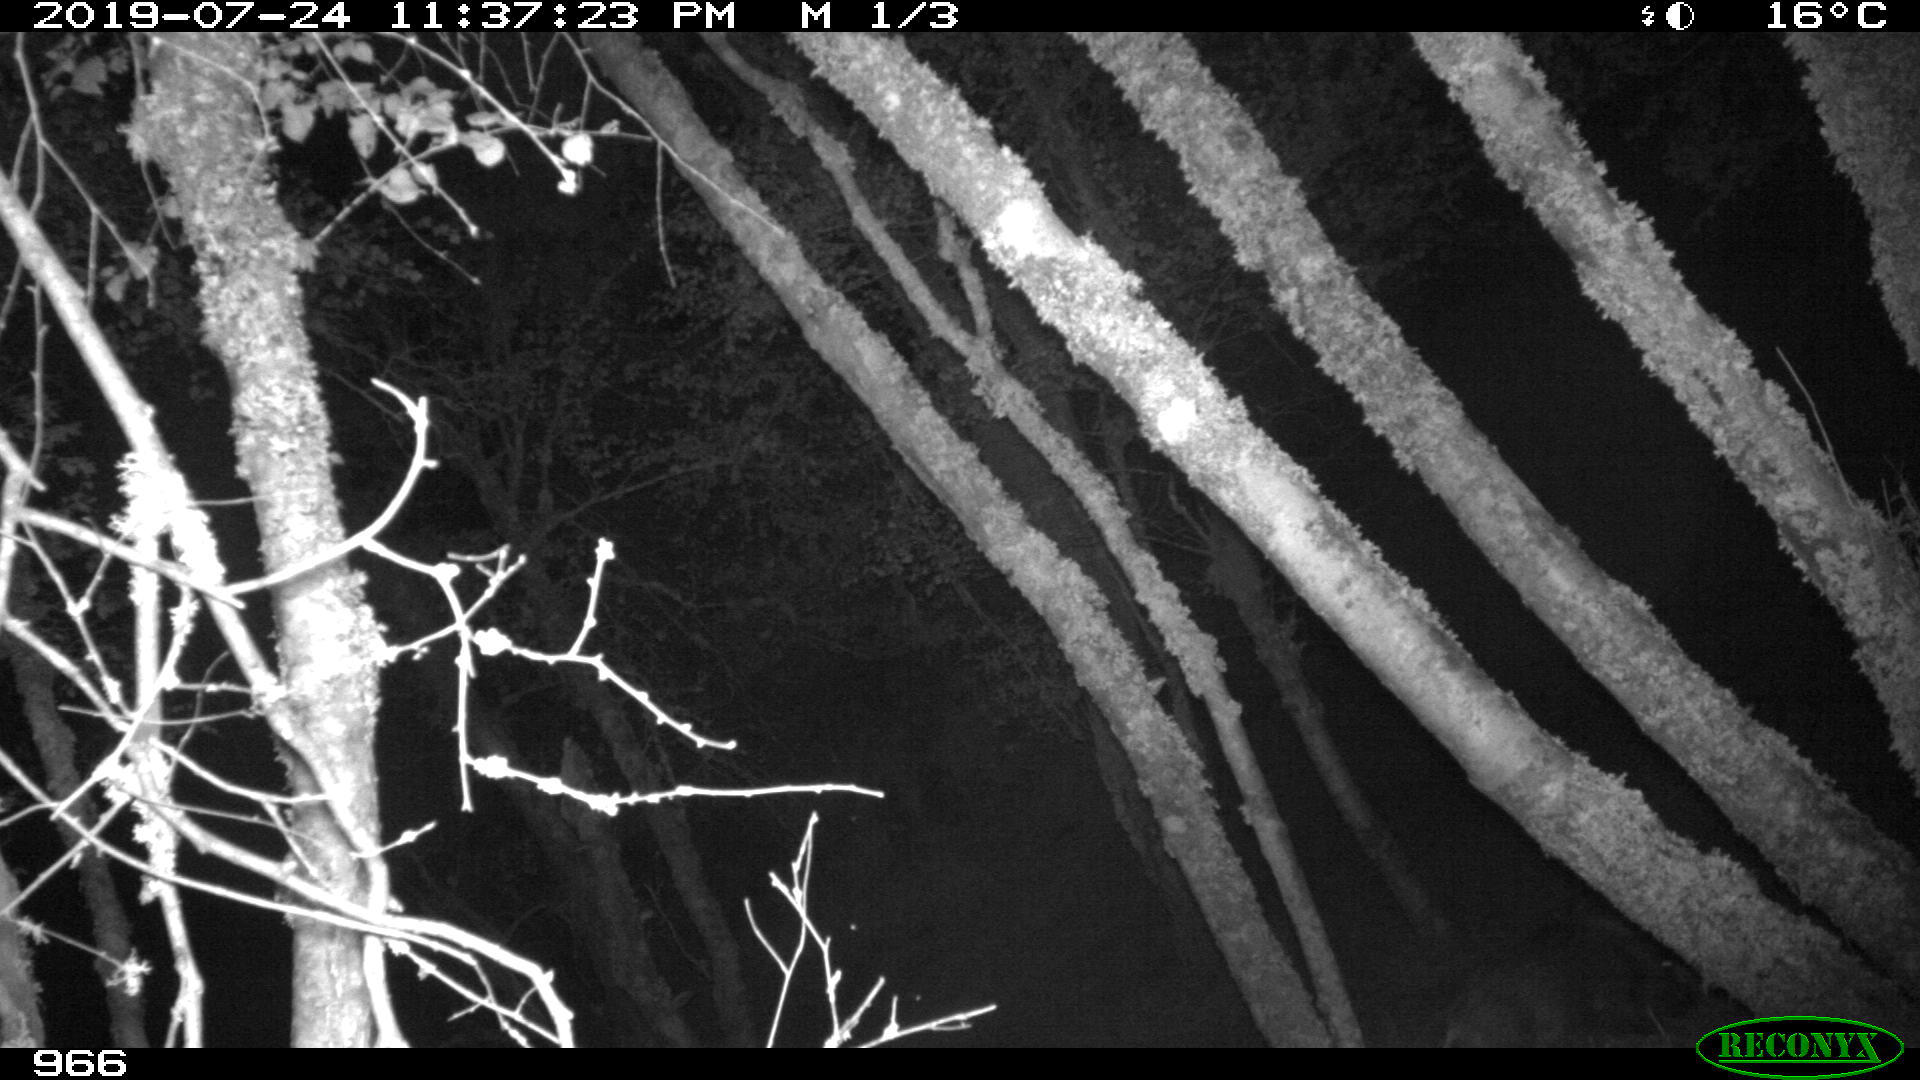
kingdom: Animalia
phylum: Chordata
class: Mammalia
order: Artiodactyla
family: Suidae
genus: Sus
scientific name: Sus scrofa
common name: Wild boar
